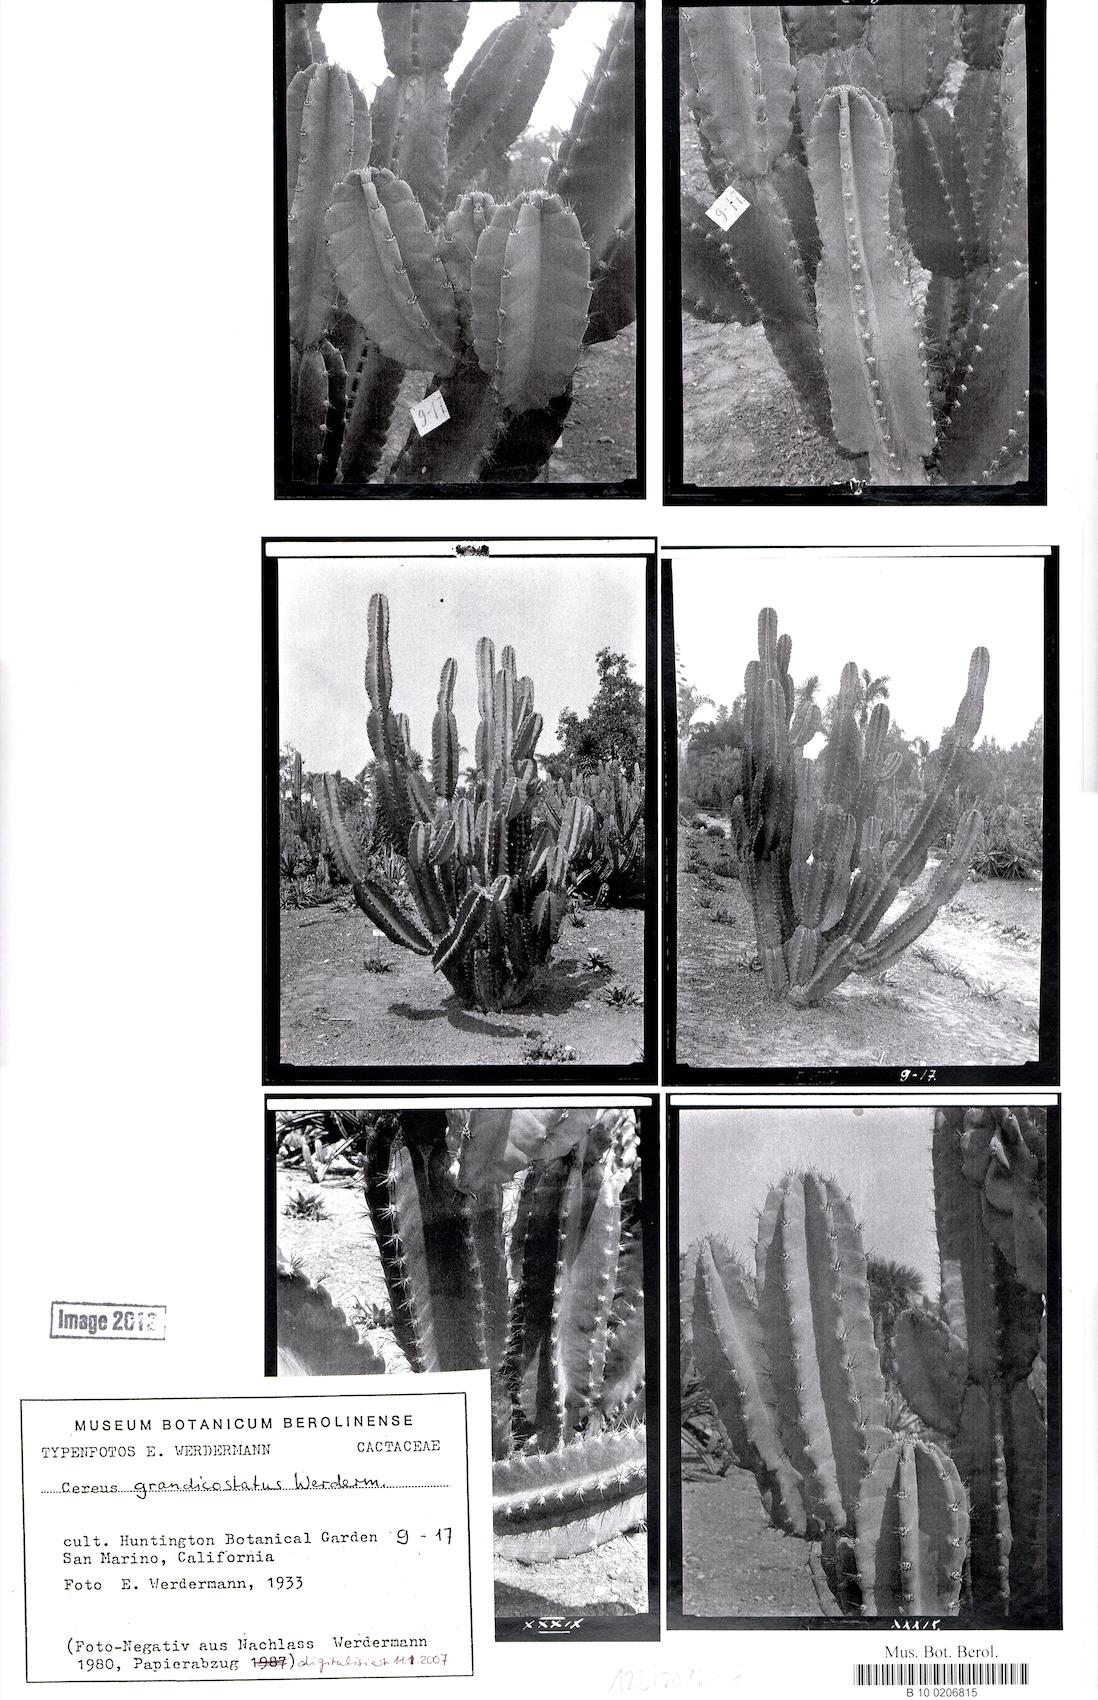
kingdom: Plantae
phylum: Tracheophyta
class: Magnoliopsida
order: Caryophyllales
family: Cactaceae
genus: Cereus
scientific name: Cereus lamprospermus
